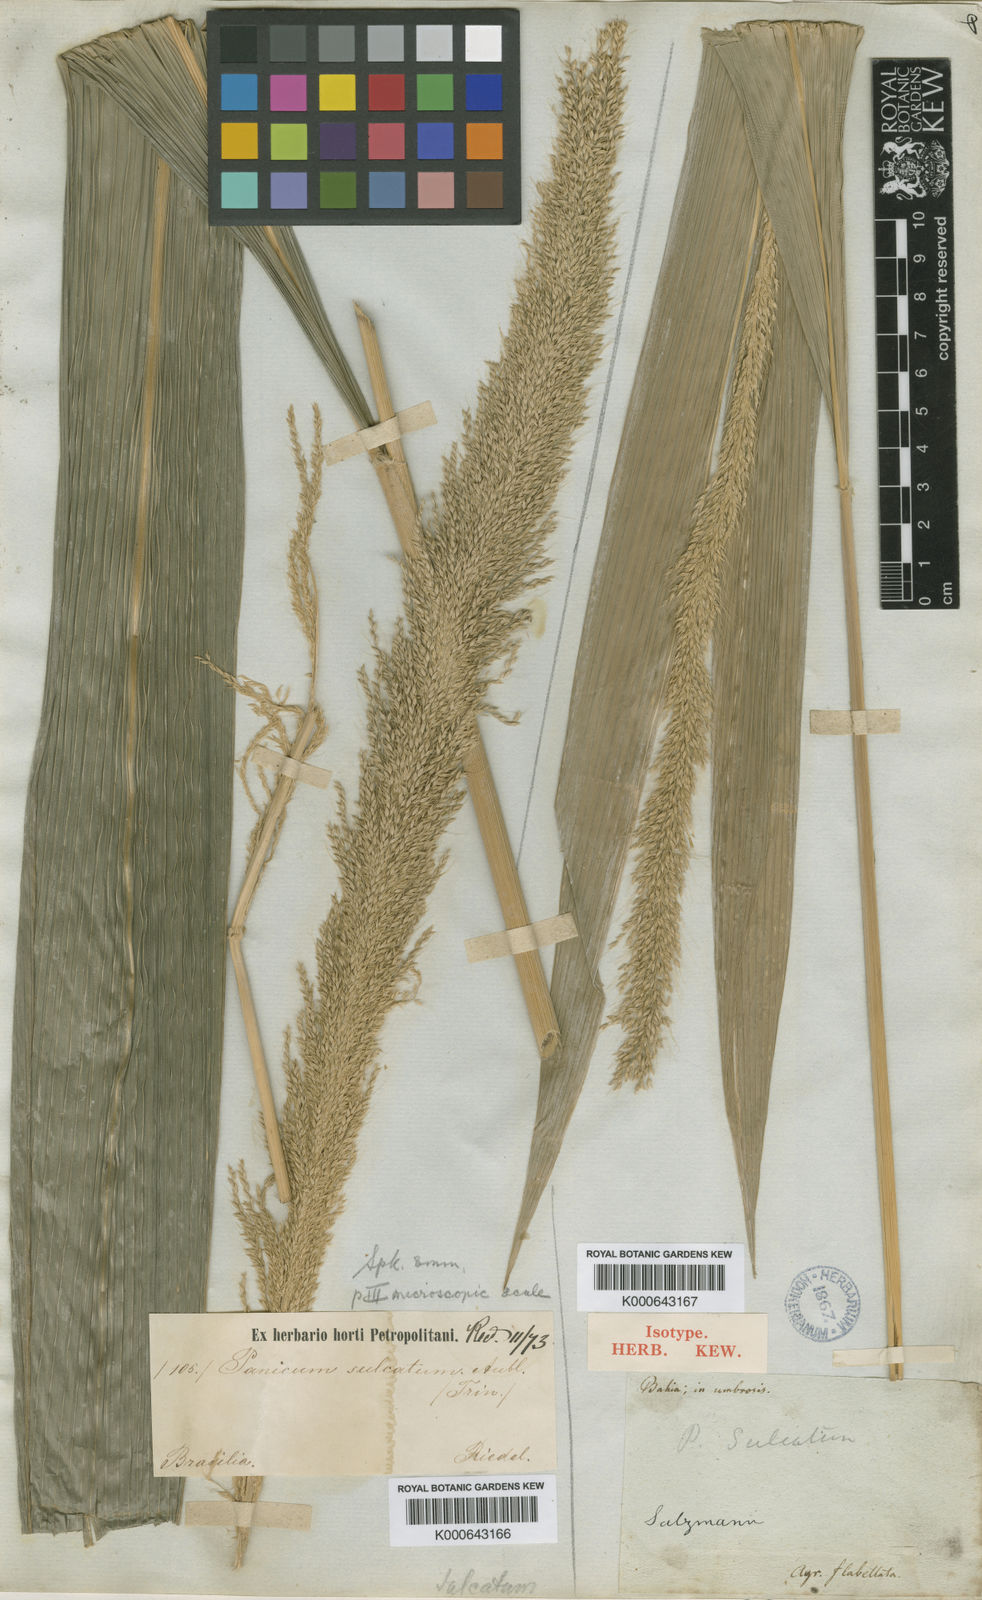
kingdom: Plantae
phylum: Tracheophyta
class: Liliopsida
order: Poales
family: Poaceae
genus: Setaria
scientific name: Setaria megaphylla
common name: Bigleaf bristlegrass
